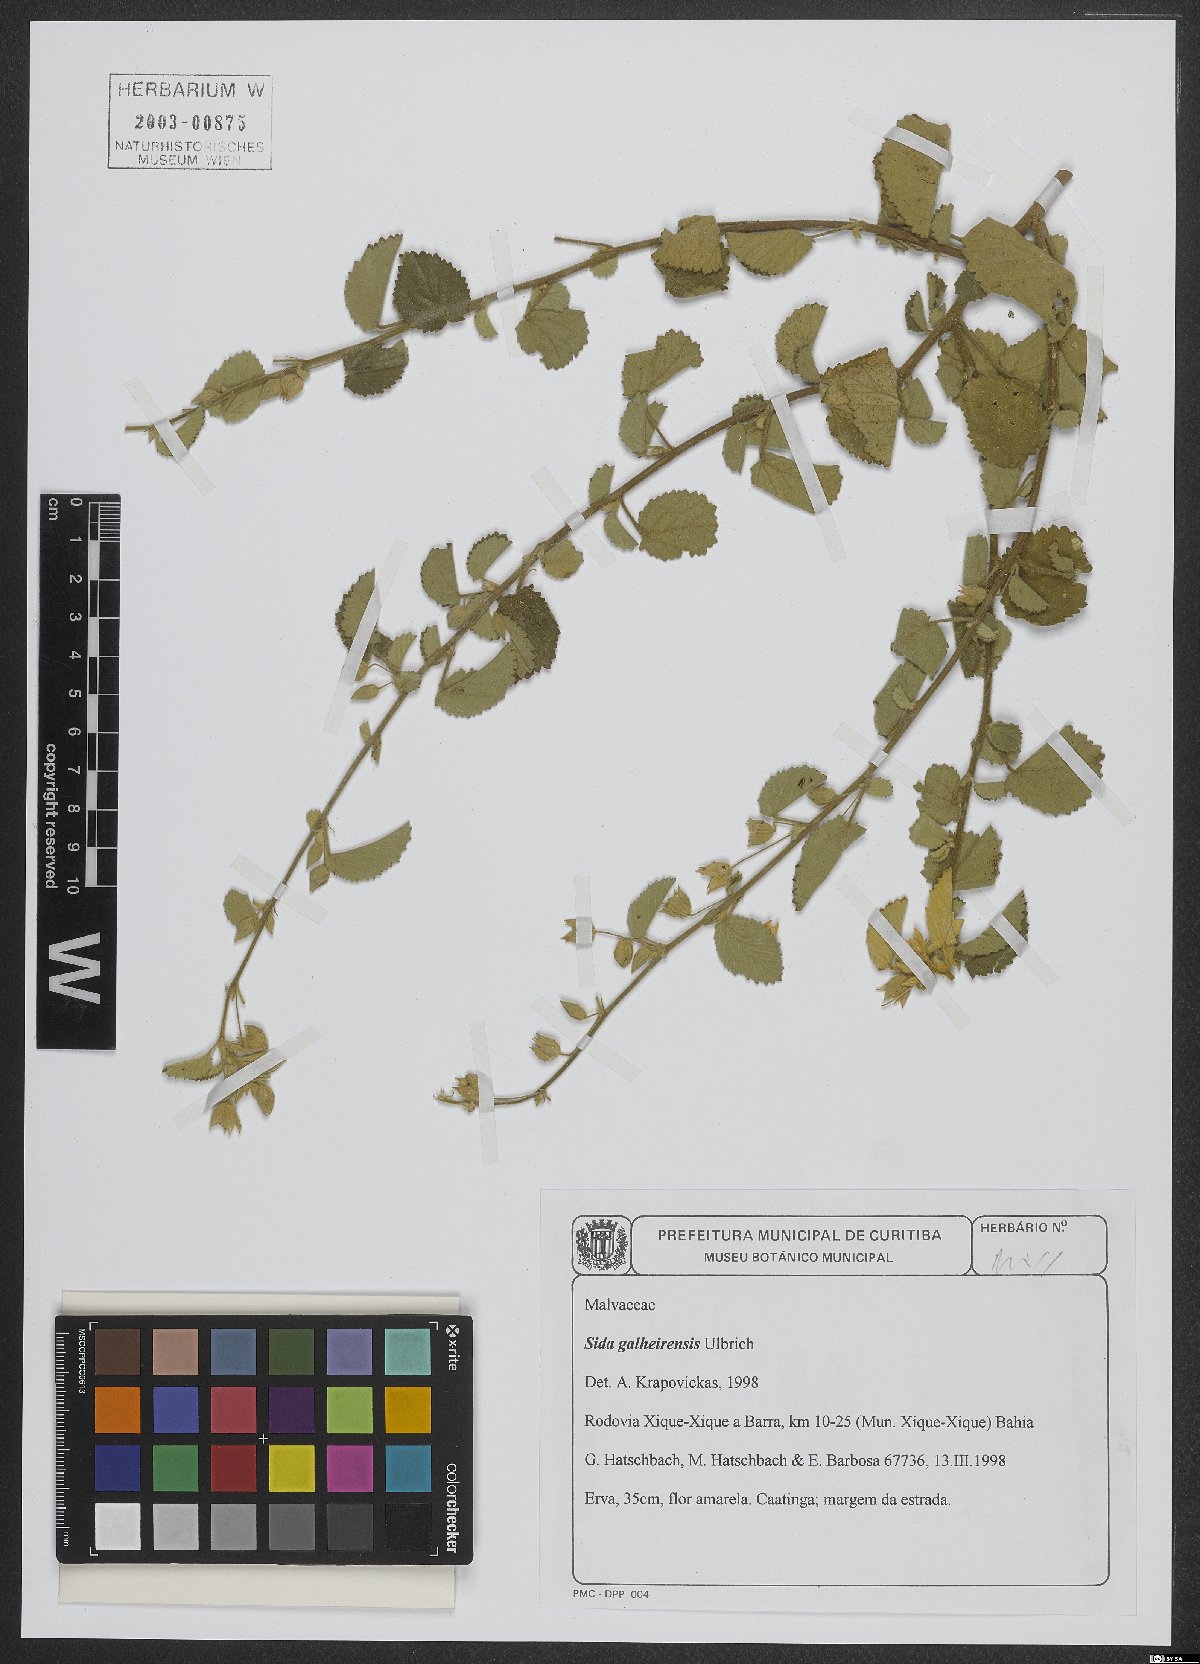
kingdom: Plantae
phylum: Tracheophyta
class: Magnoliopsida
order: Malvales
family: Malvaceae
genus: Sida
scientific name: Sida galheirensis
